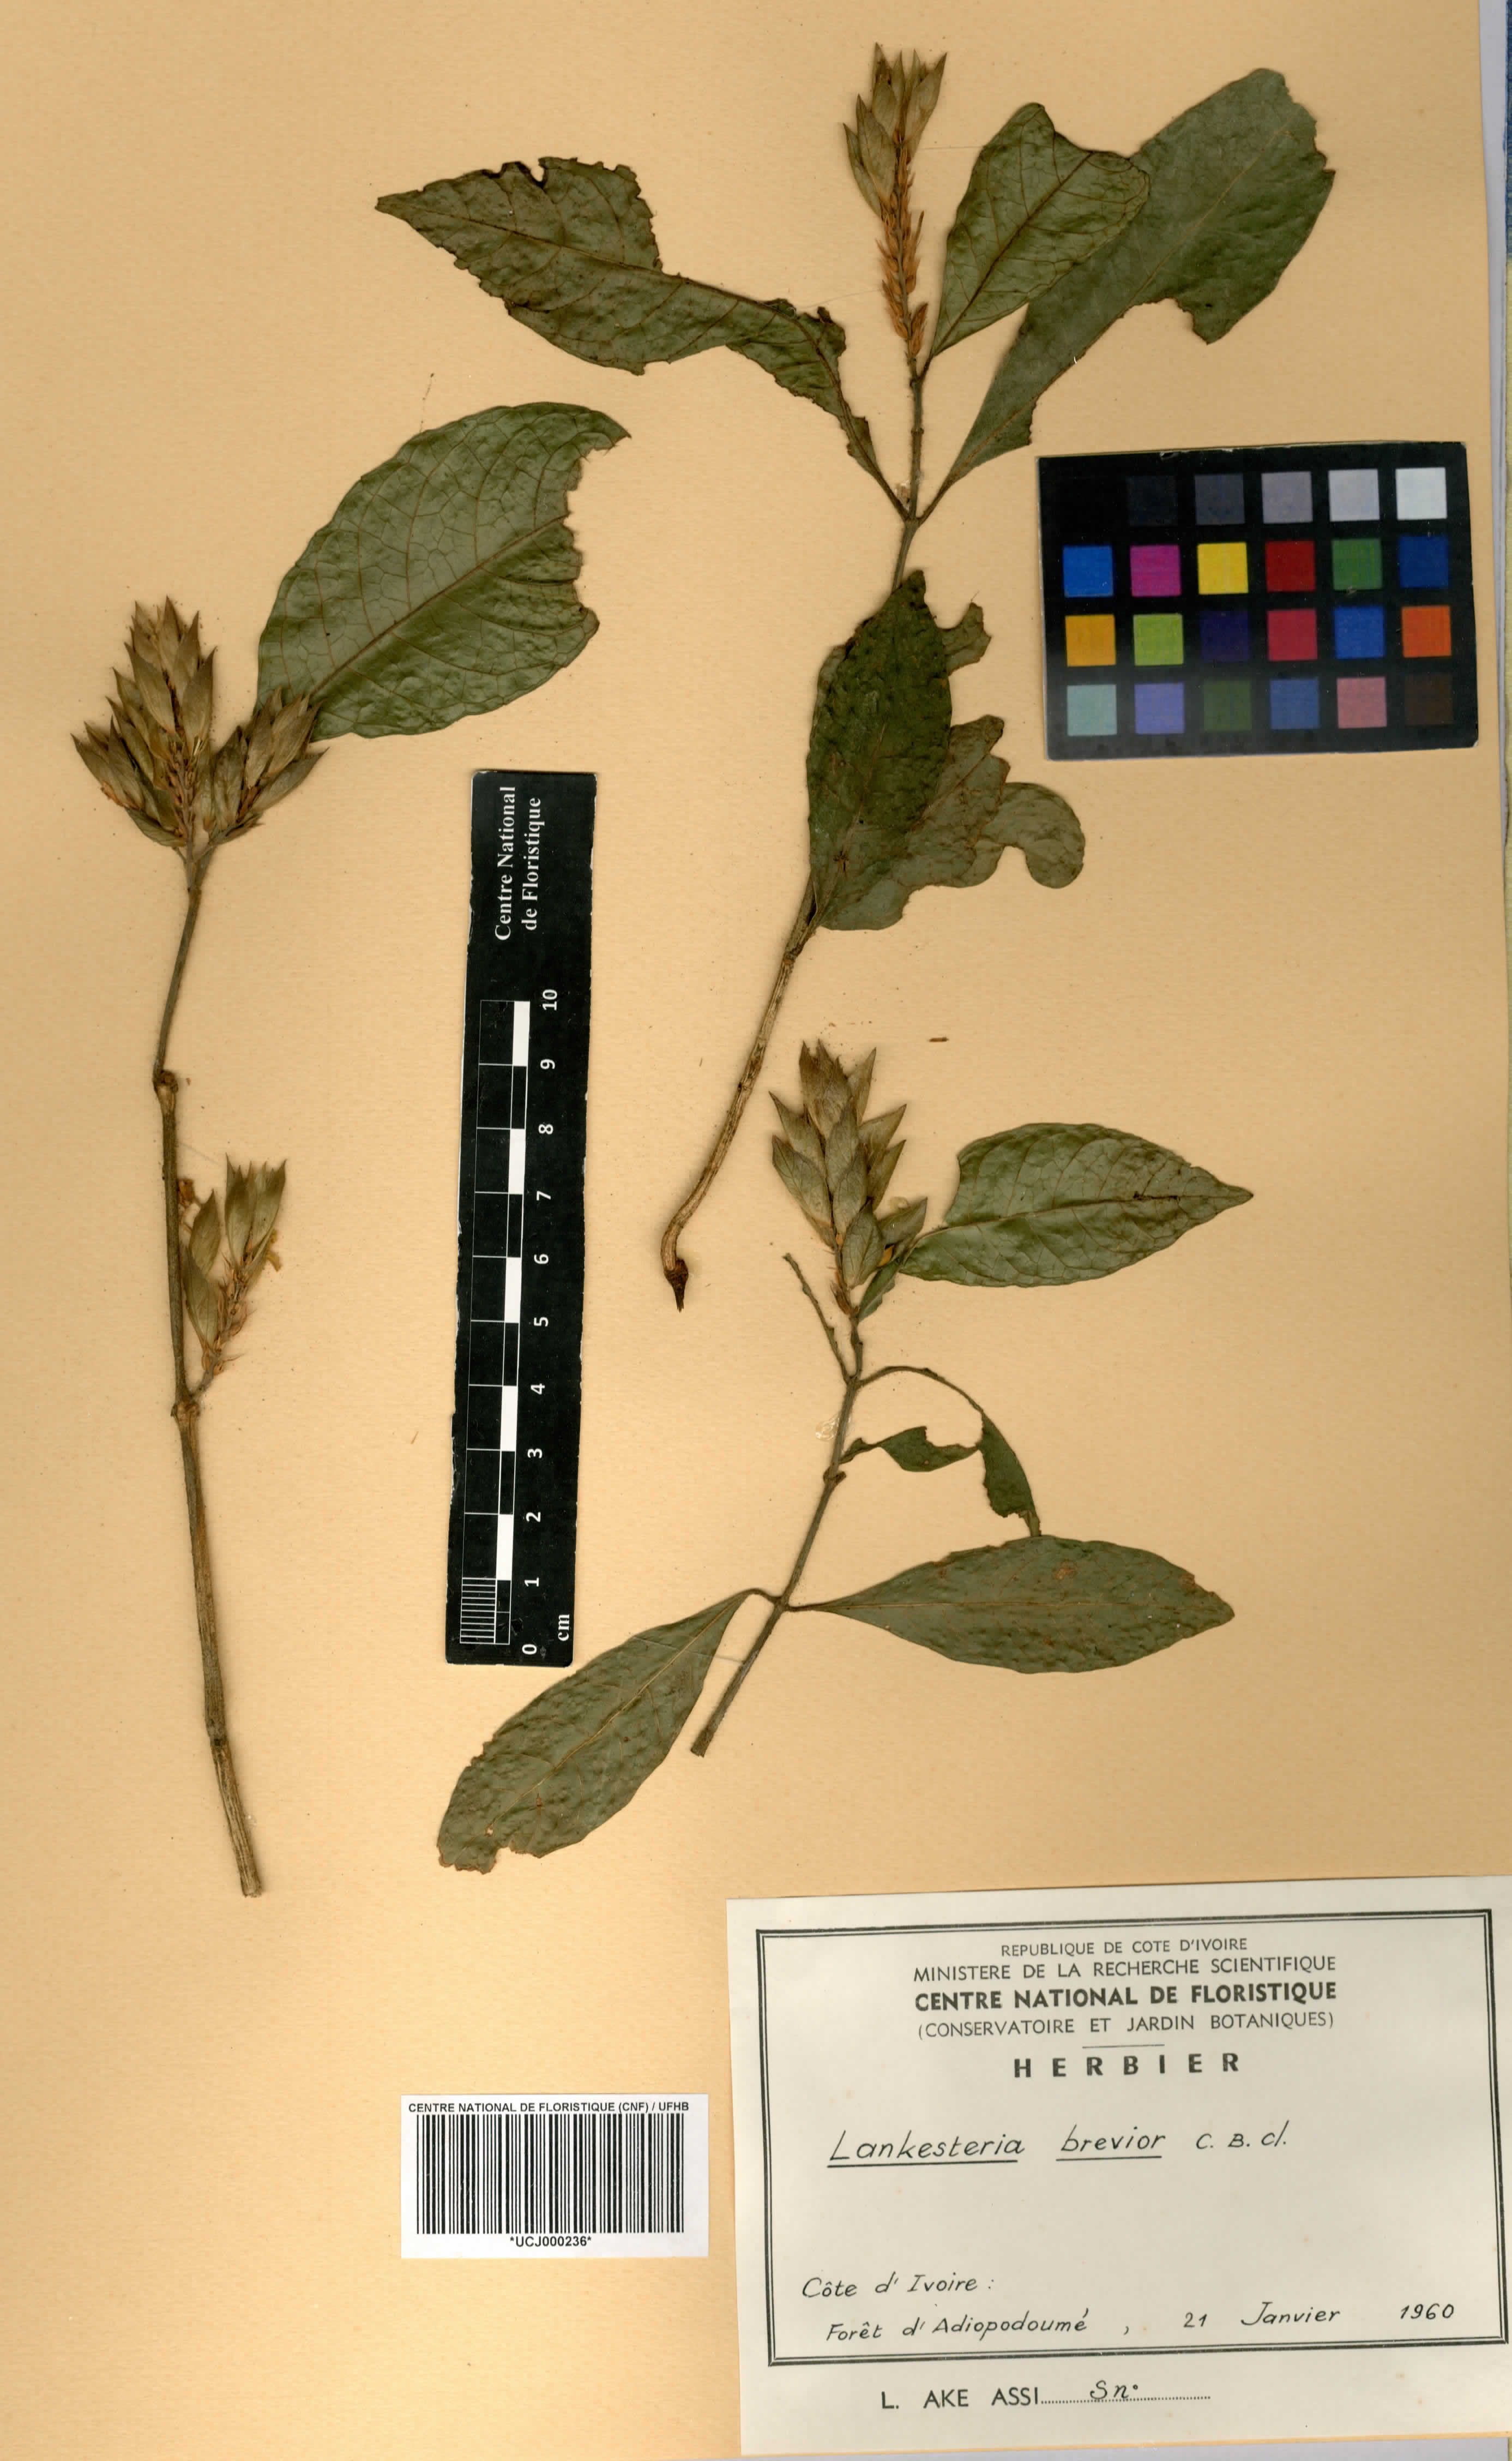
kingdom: Plantae
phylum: Tracheophyta
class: Magnoliopsida
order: Lamiales
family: Acanthaceae
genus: Lankesteria
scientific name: Lankesteria brevior
